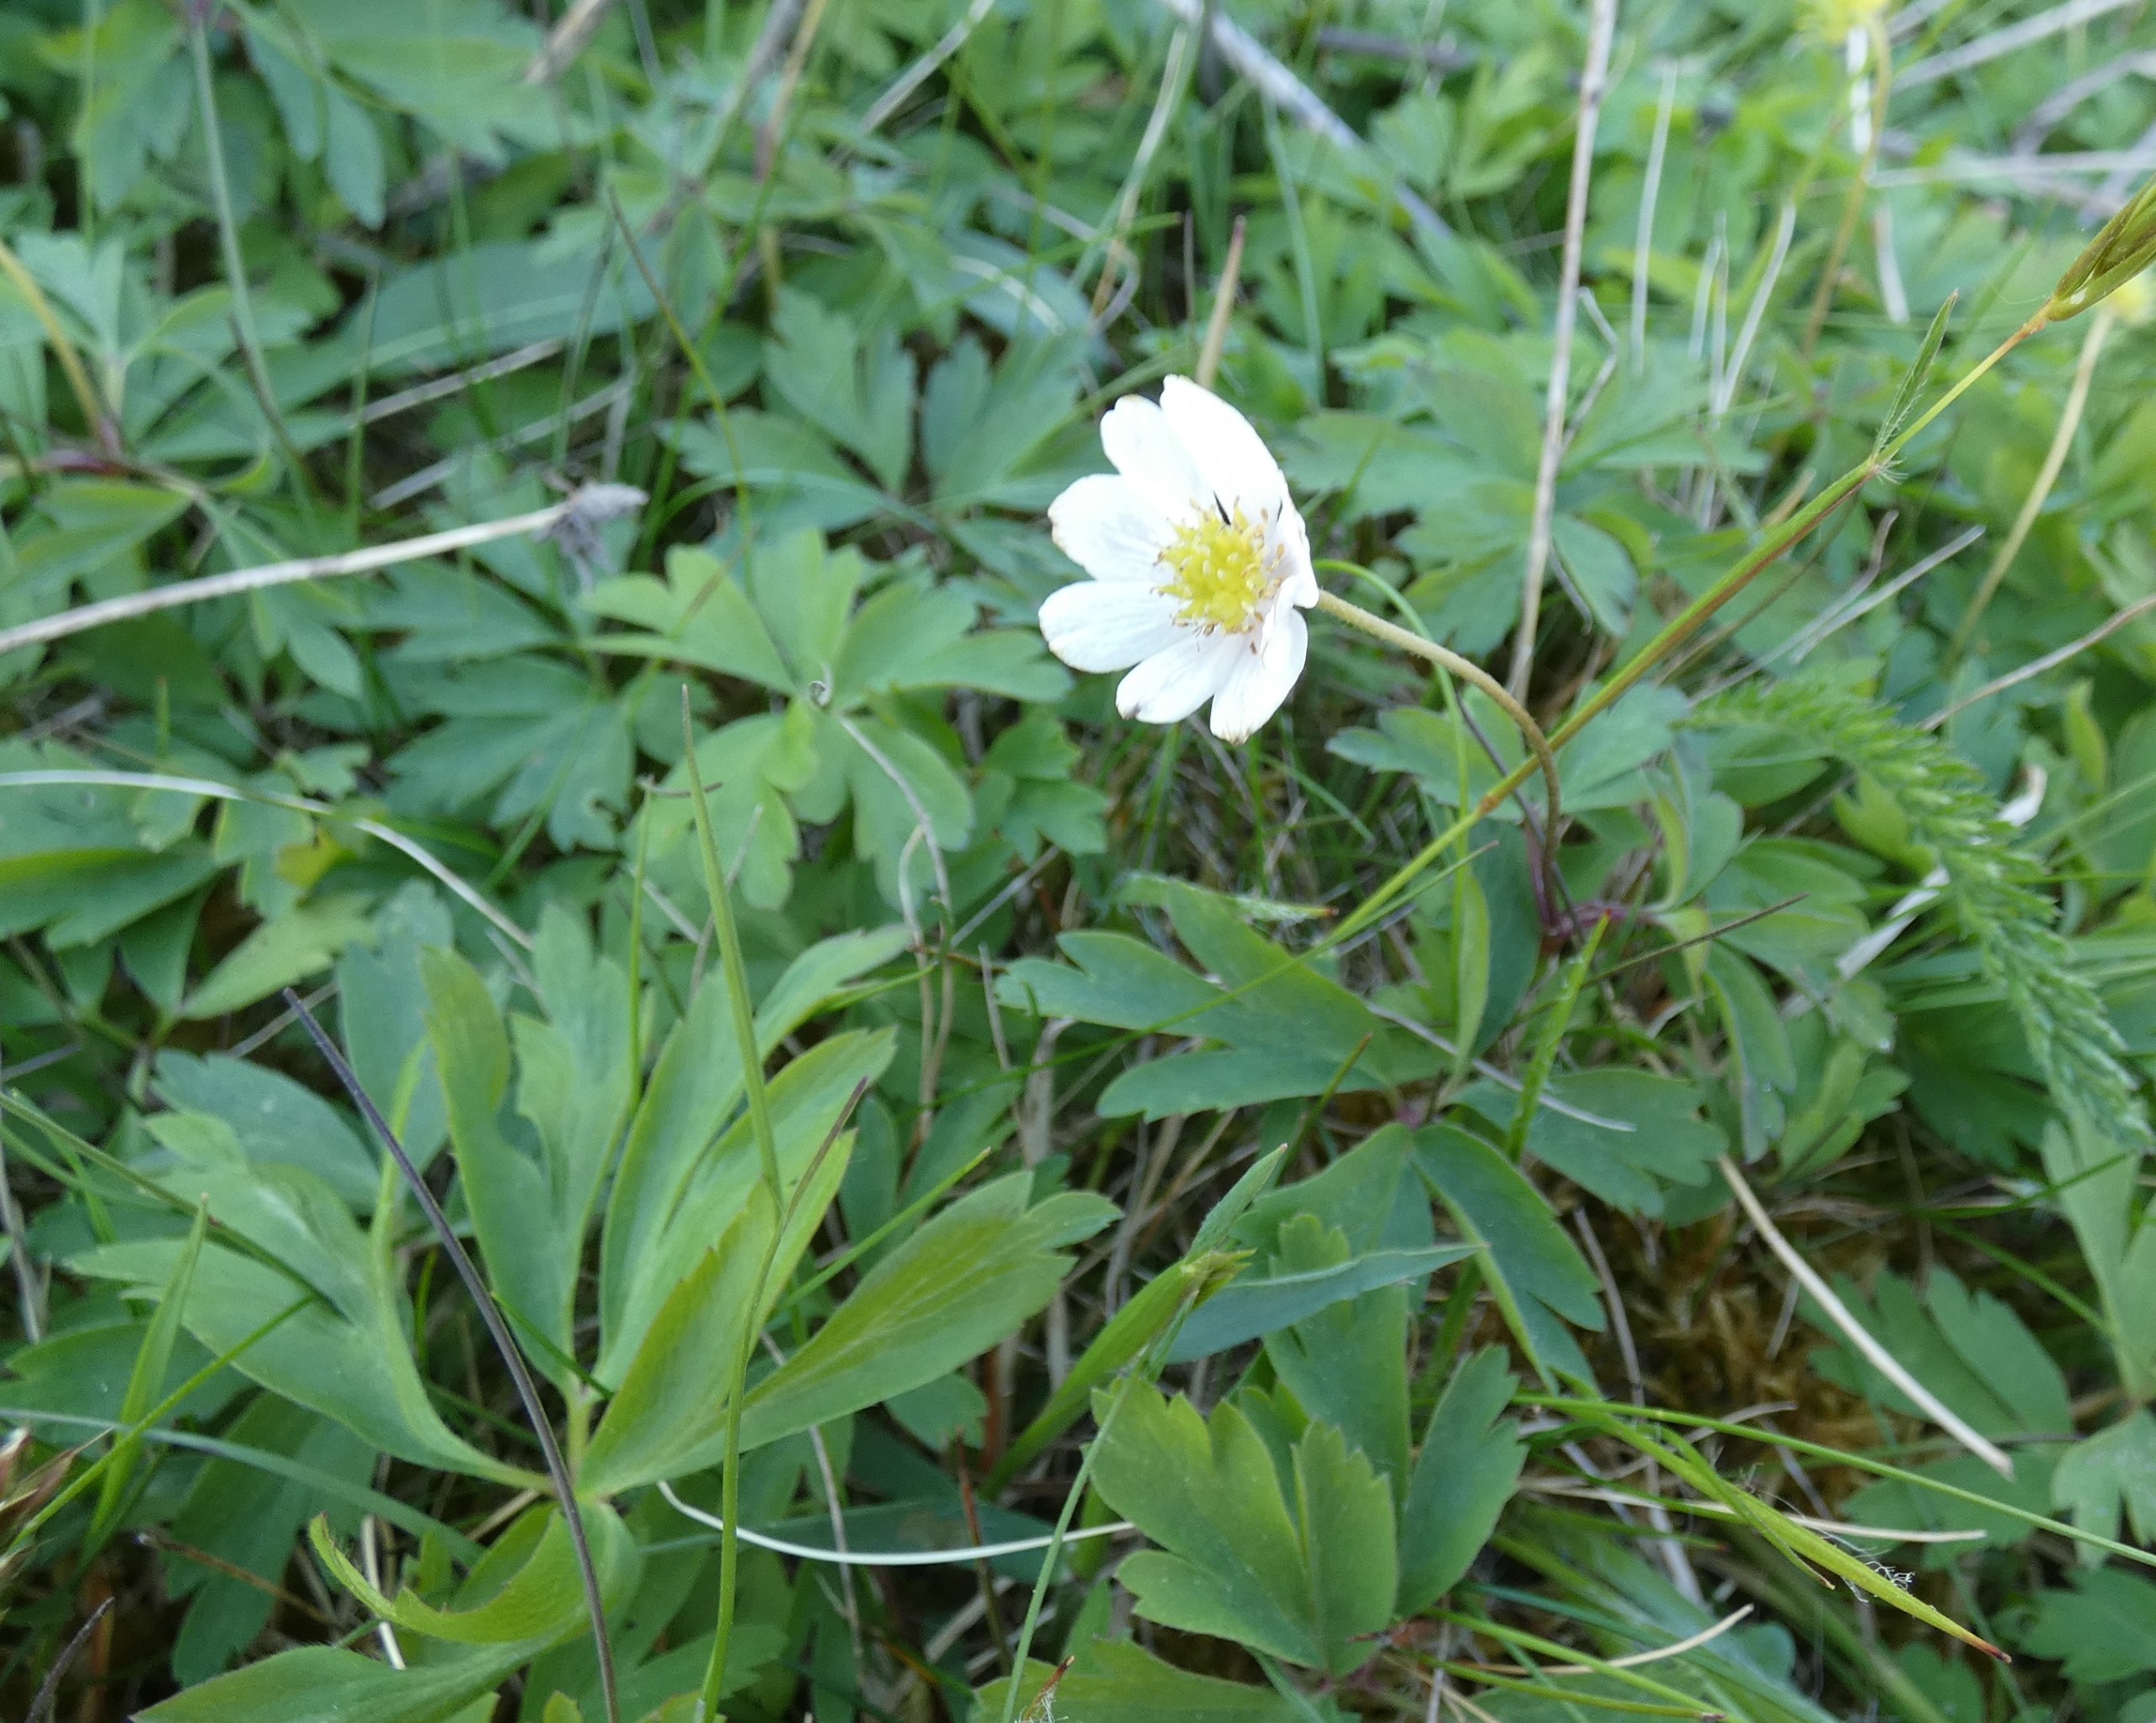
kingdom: Plantae
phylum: Tracheophyta
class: Magnoliopsida
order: Ranunculales
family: Ranunculaceae
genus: Anemone
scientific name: Anemone nemorosa
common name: Hvid anemone
